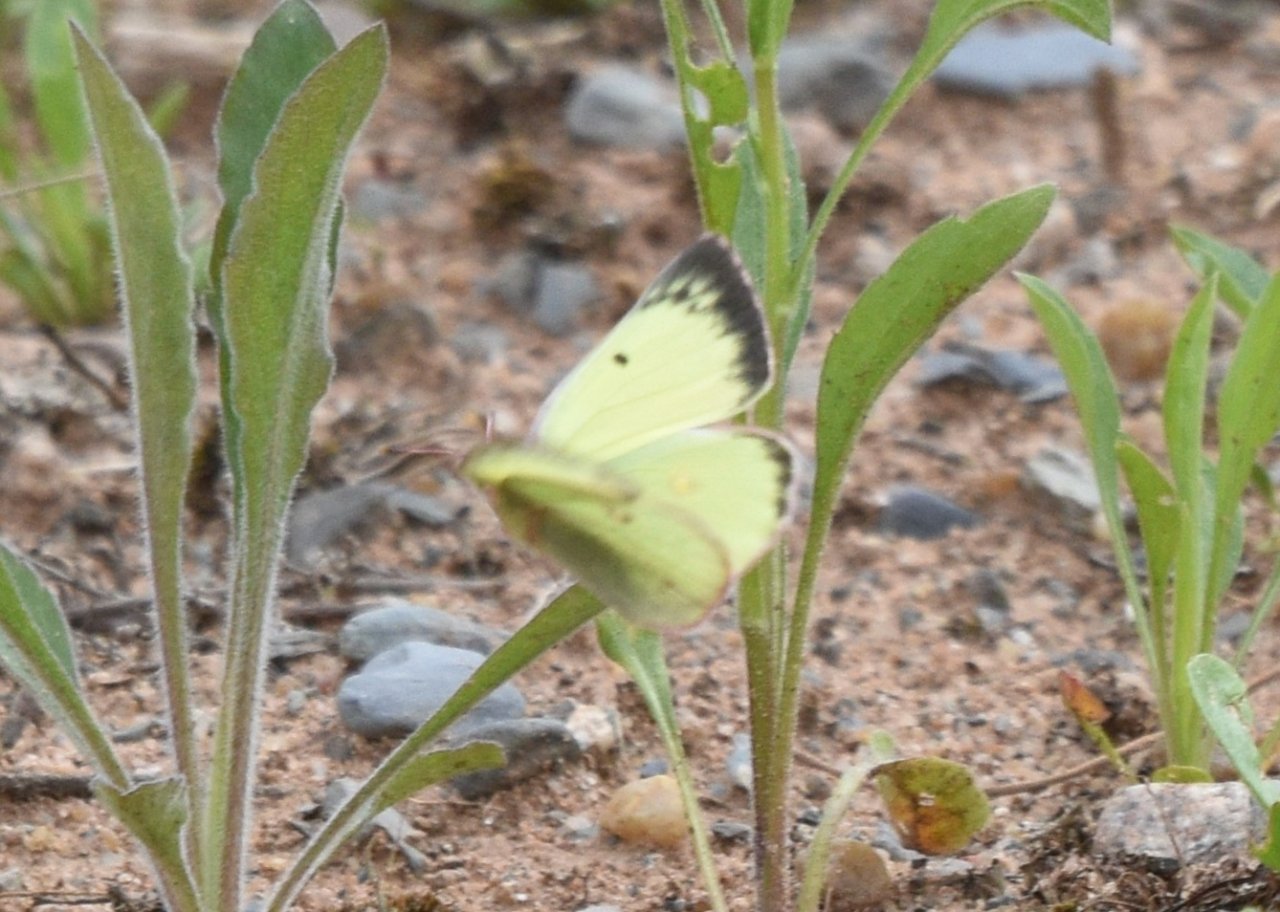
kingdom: Animalia
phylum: Arthropoda
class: Insecta
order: Lepidoptera
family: Pieridae
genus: Colias
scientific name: Colias philodice
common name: Clouded Sulphur
